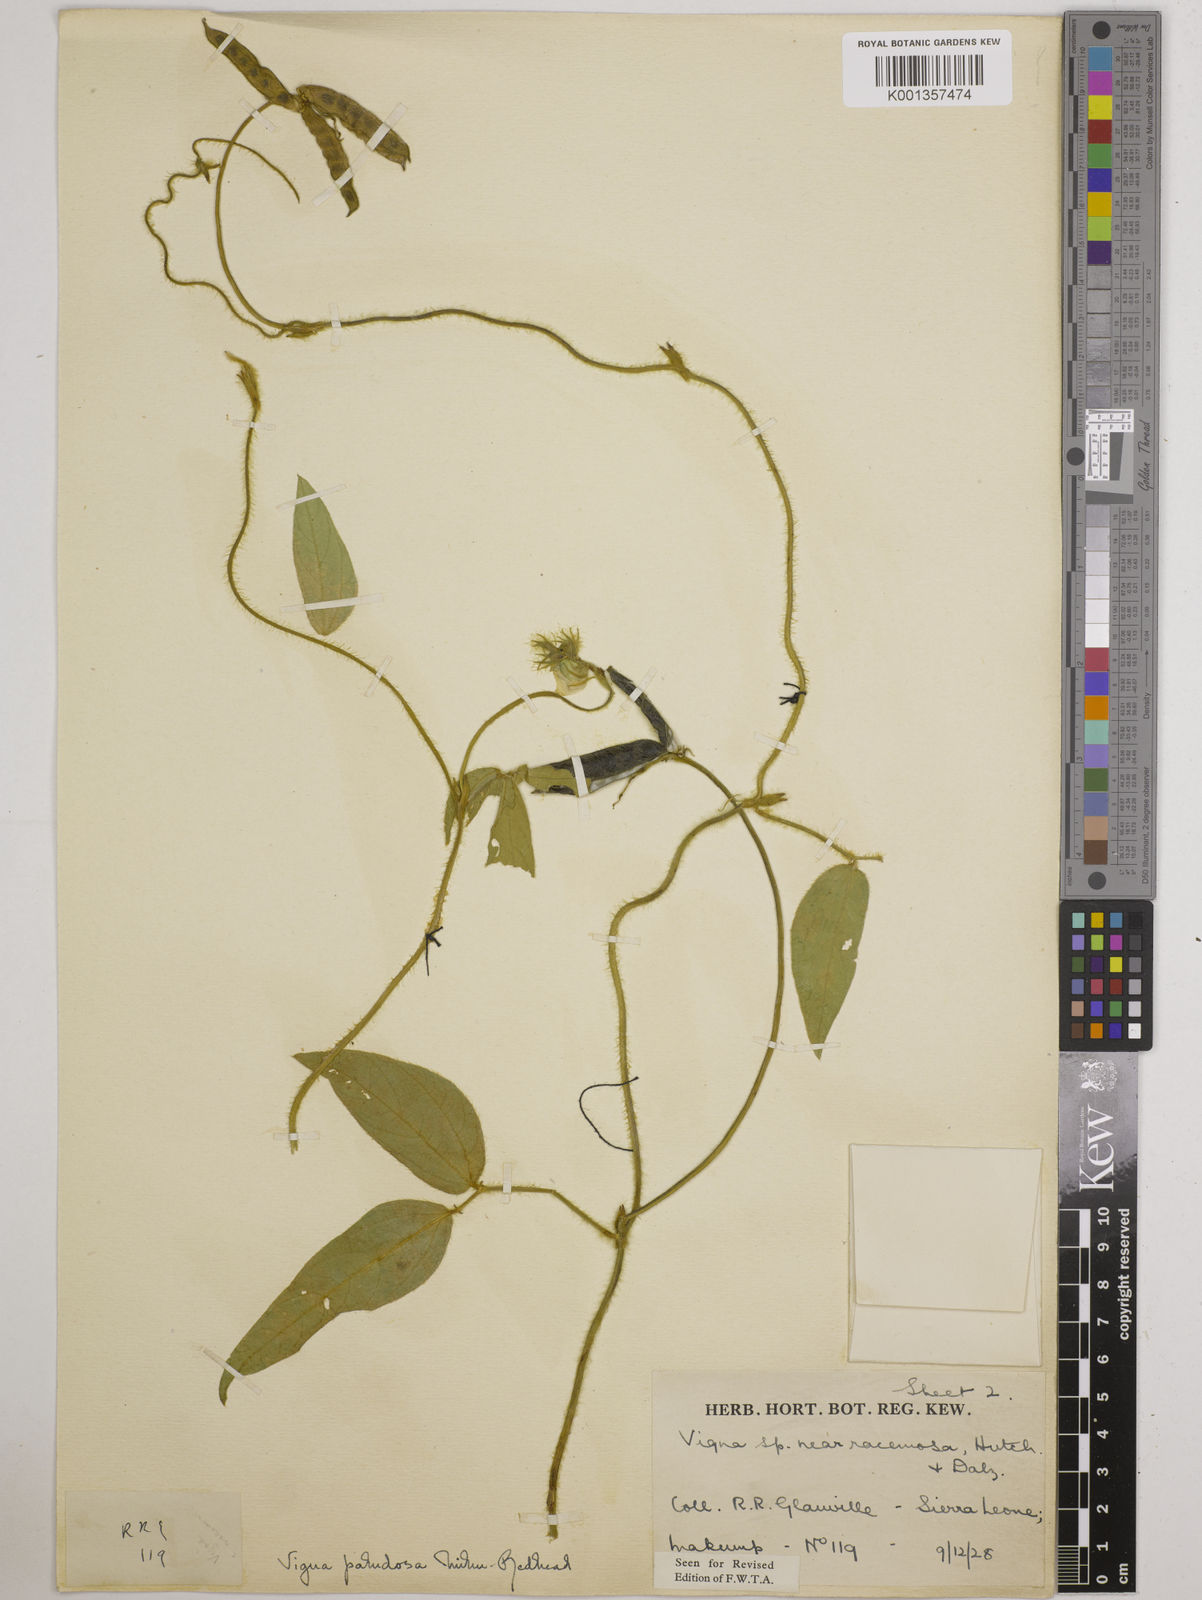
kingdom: Plantae
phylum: Tracheophyta
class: Magnoliopsida
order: Fabales
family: Fabaceae
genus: Vigna
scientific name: Vigna longifolia
